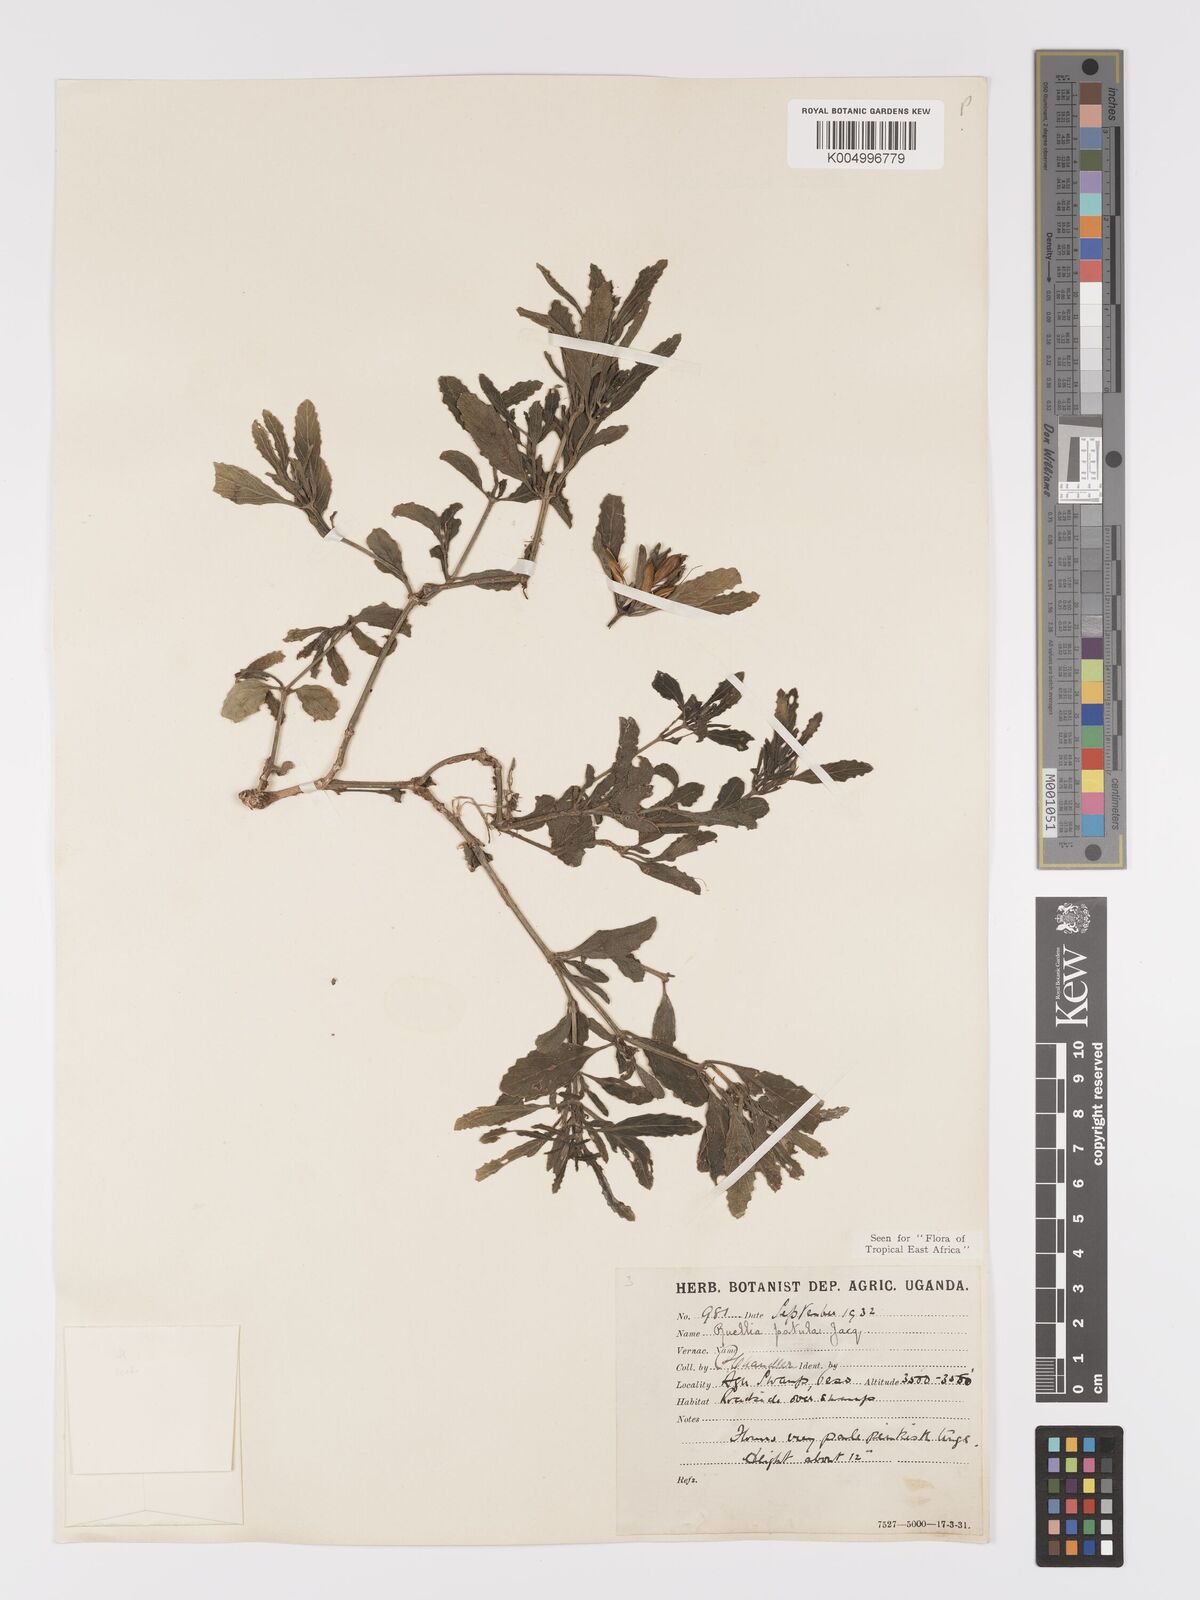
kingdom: Plantae
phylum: Tracheophyta
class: Magnoliopsida
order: Lamiales
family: Acanthaceae
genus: Ruellia
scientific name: Ruellia patula
